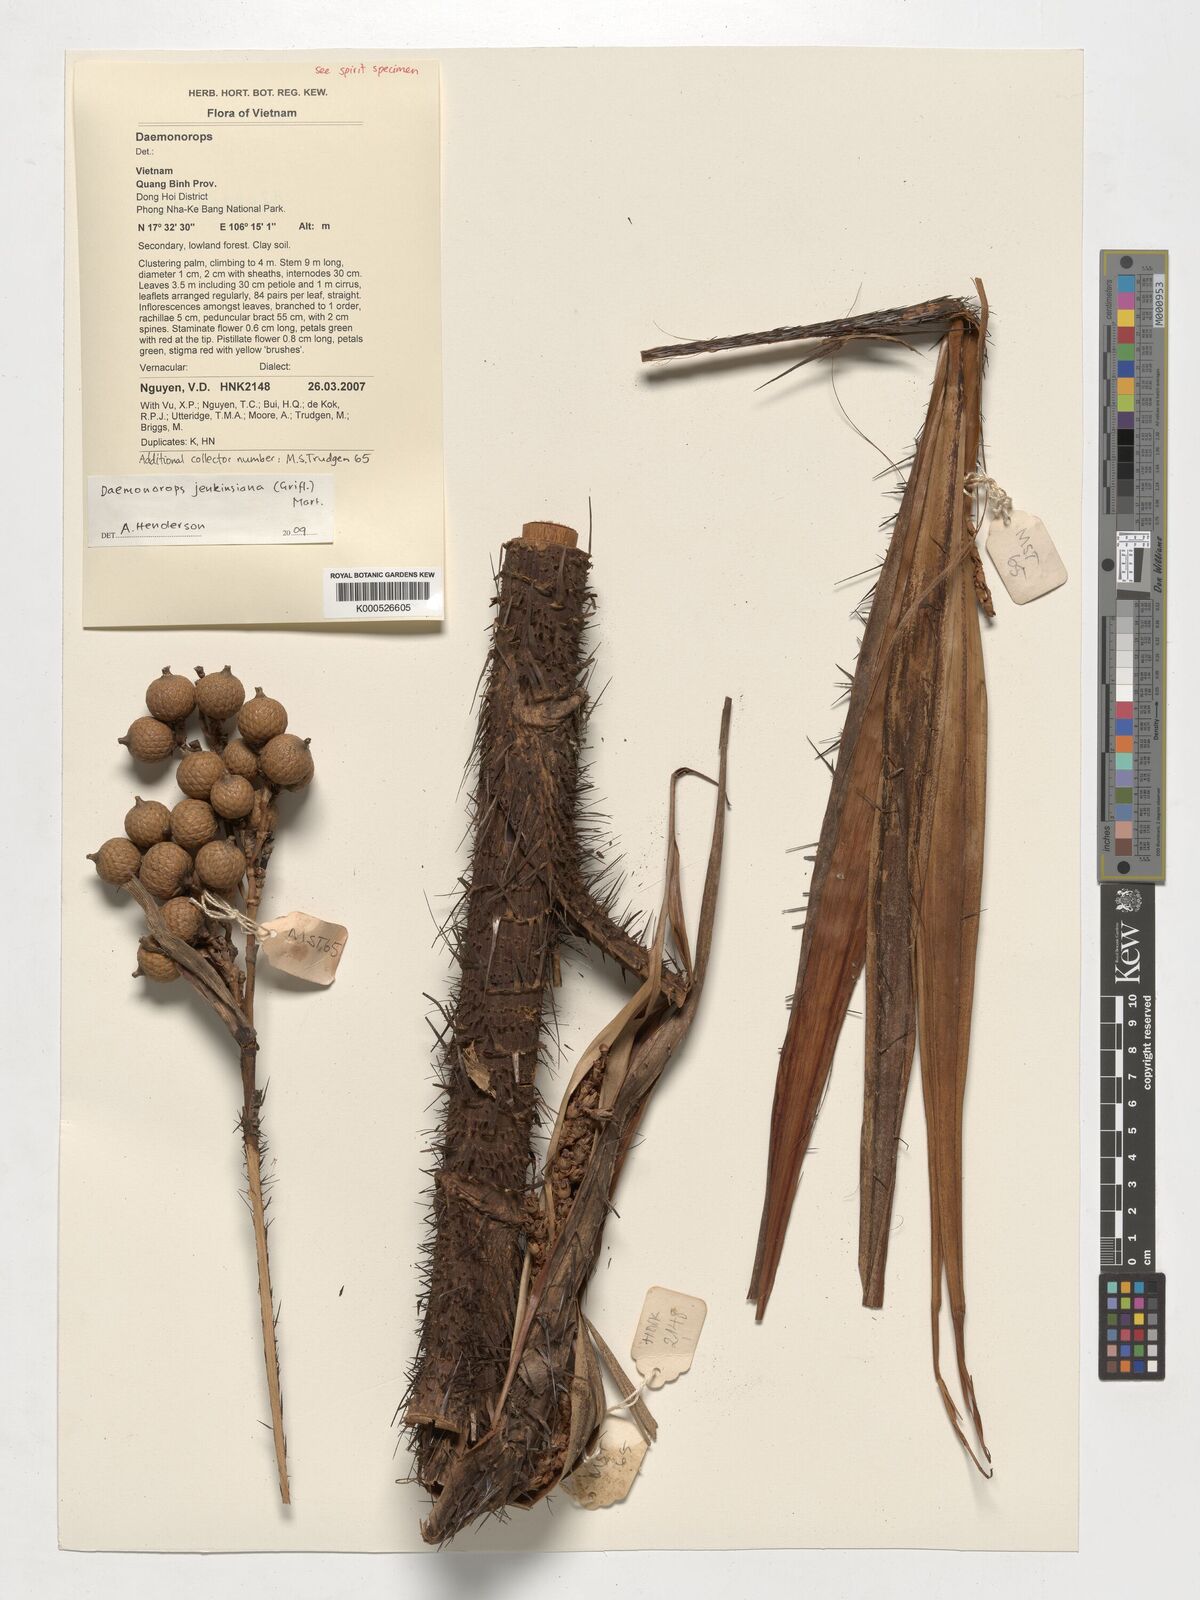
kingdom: Plantae
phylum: Tracheophyta
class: Liliopsida
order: Arecales
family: Arecaceae
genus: Calamus
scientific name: Calamus melanochaetes
